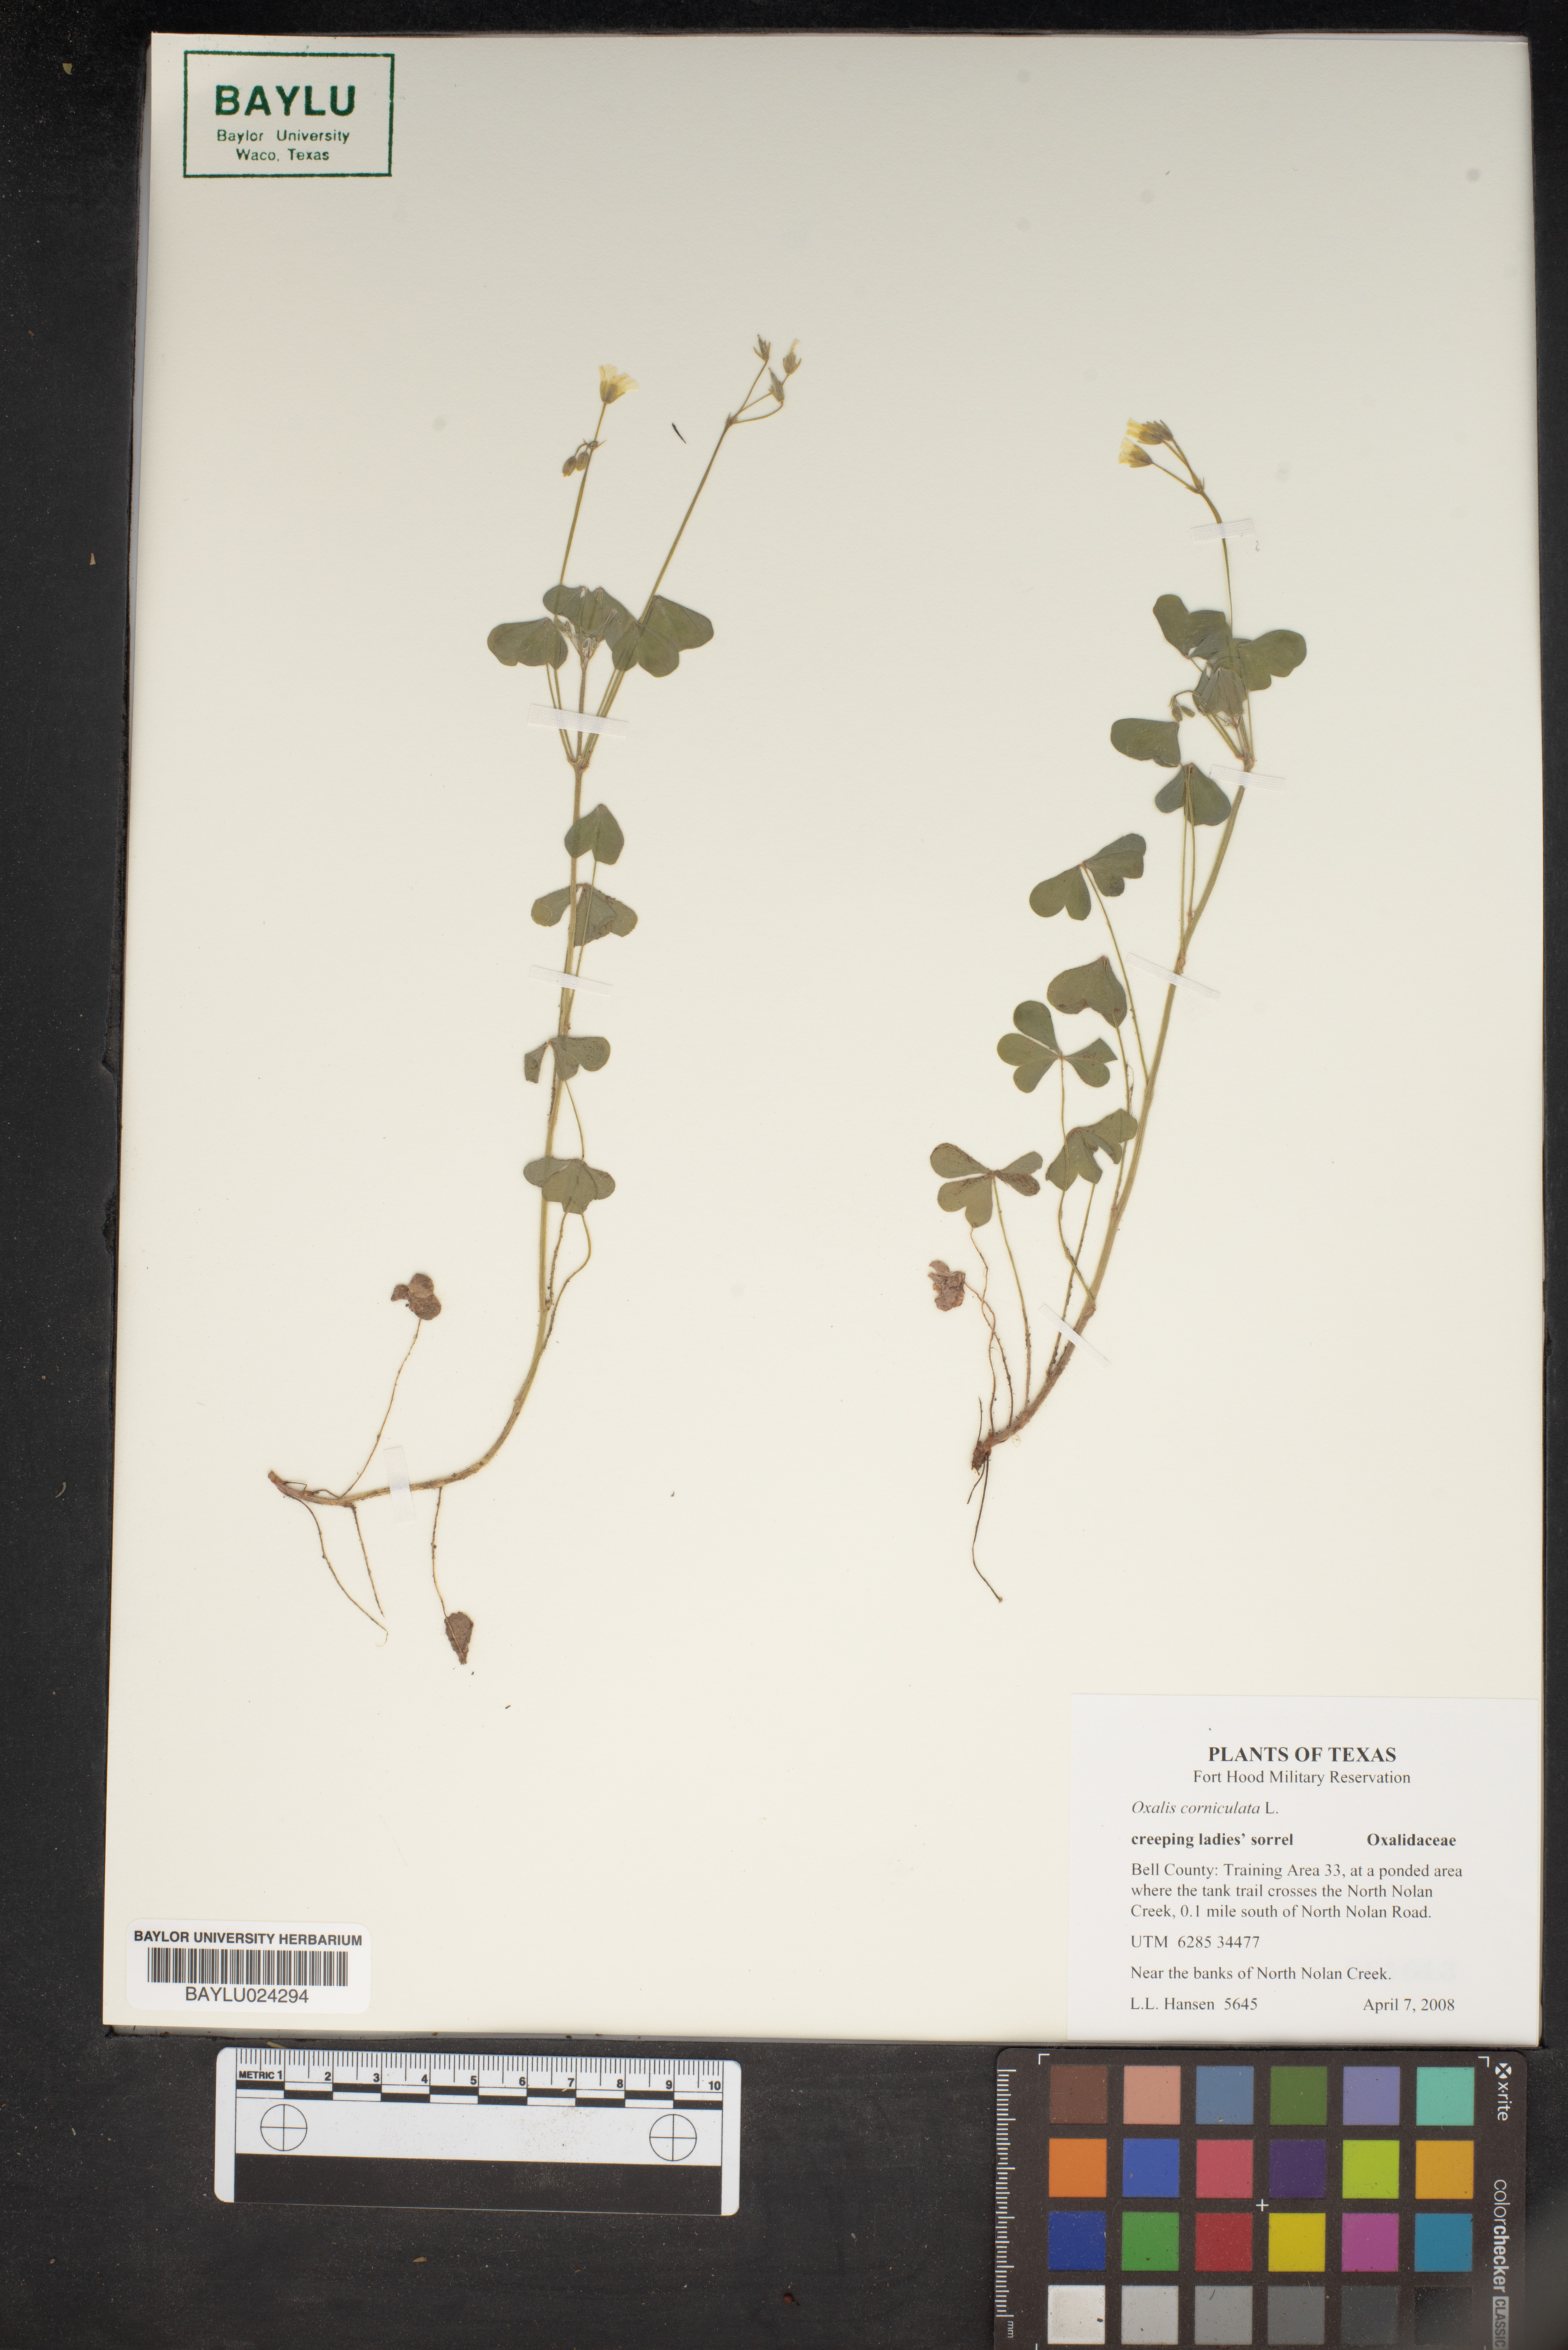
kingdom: Plantae
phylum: Tracheophyta
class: Magnoliopsida
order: Oxalidales
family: Oxalidaceae
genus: Oxalis
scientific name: Oxalis corniculata
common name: Procumbent yellow-sorrel
